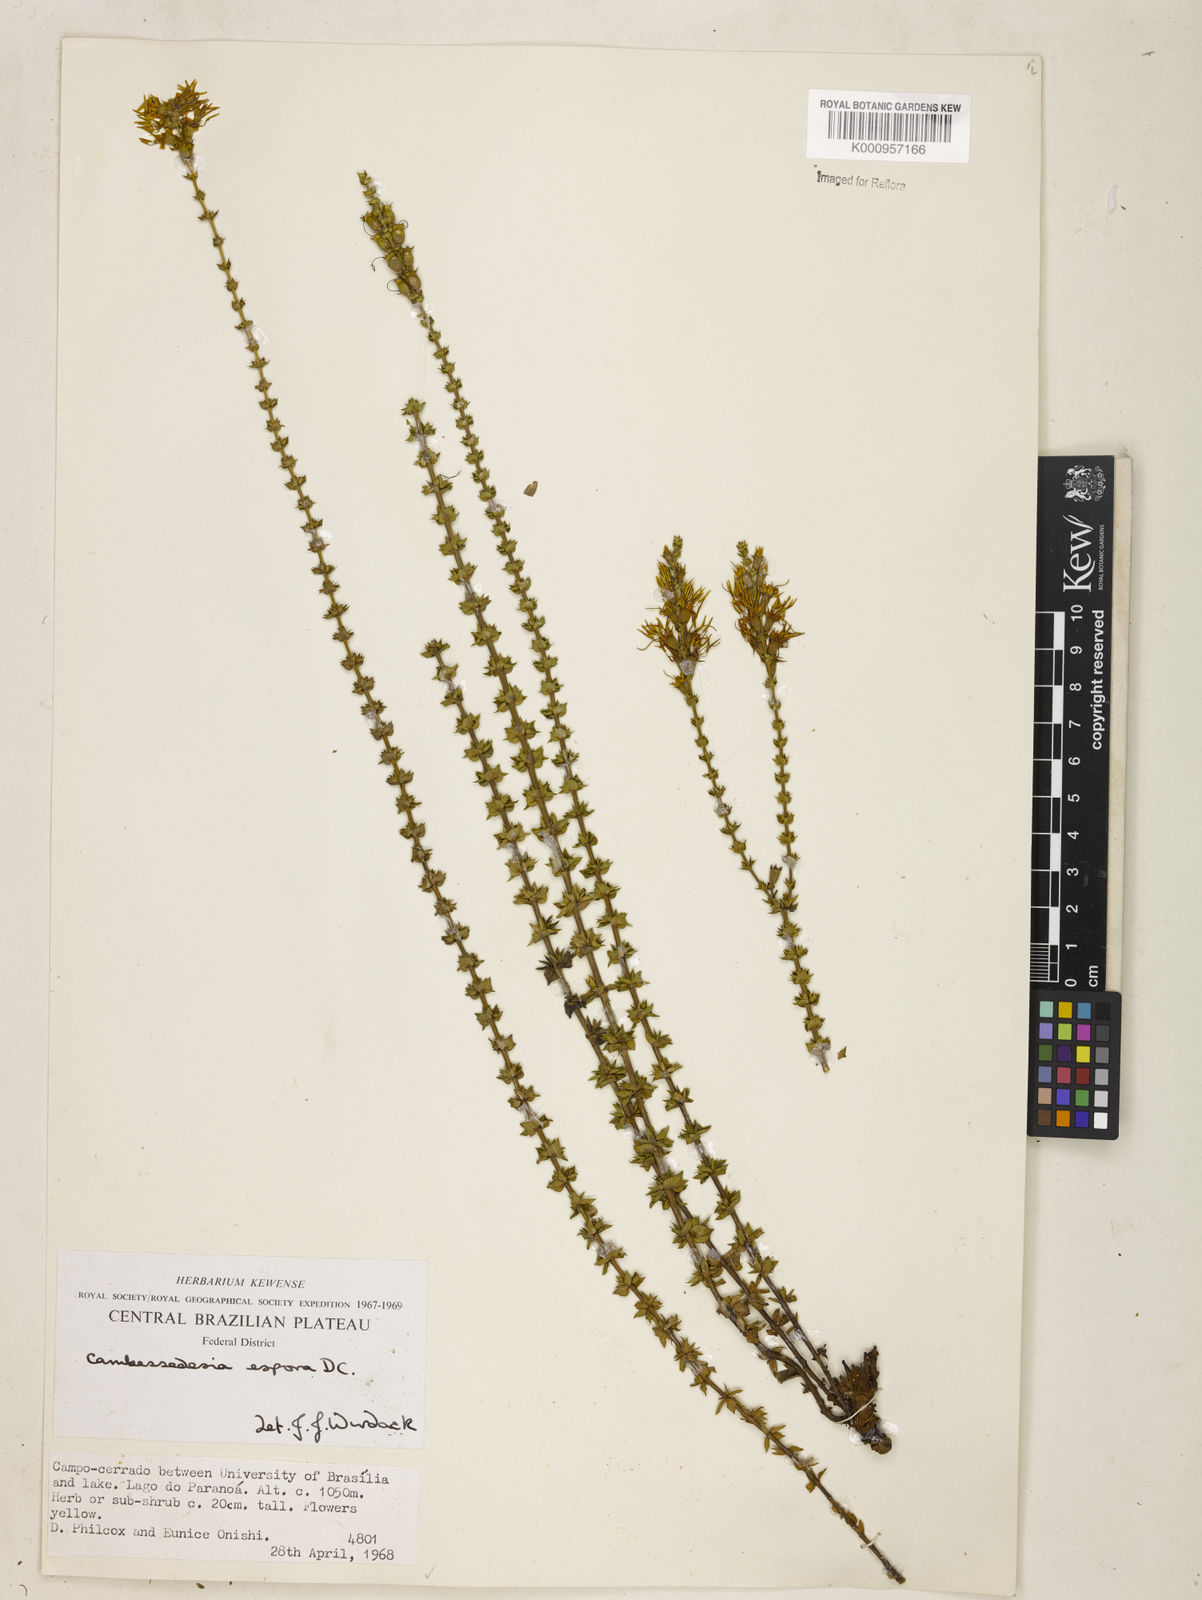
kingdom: Plantae
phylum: Tracheophyta
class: Magnoliopsida
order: Myrtales
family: Melastomataceae
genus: Cambessedesia
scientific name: Cambessedesia espora
